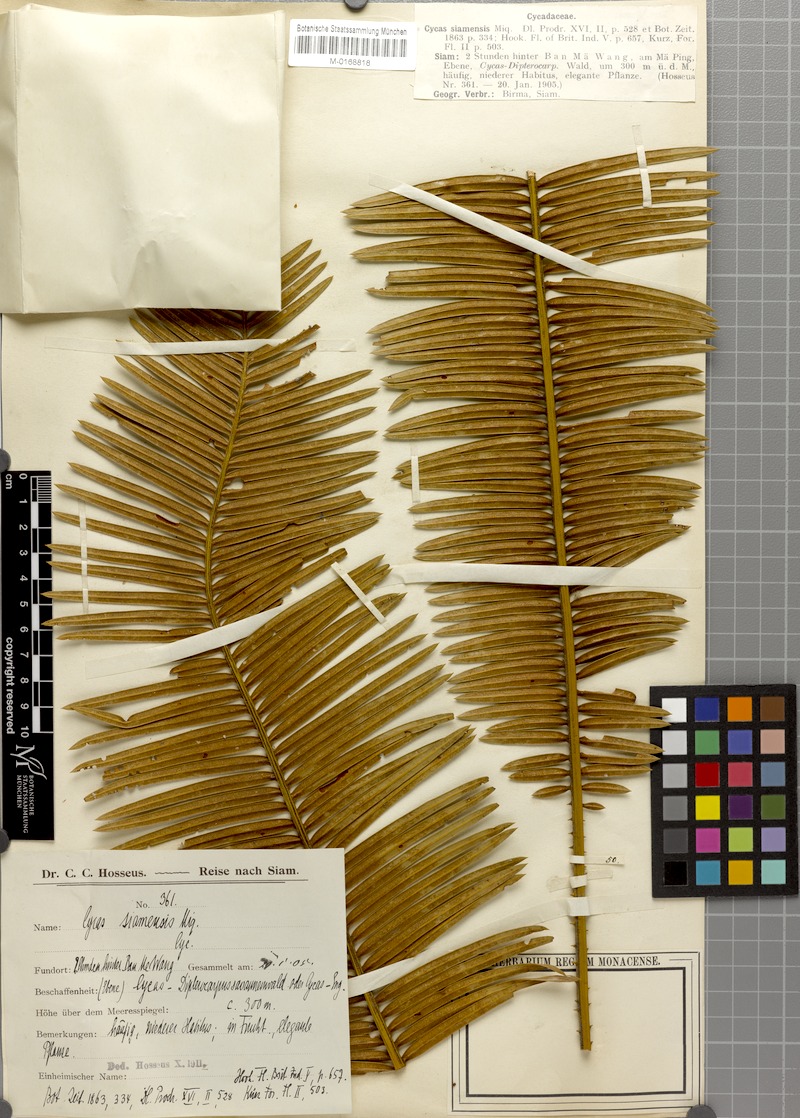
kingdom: Plantae
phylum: Tracheophyta
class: Cycadopsida
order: Cycadales
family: Cycadaceae
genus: Cycas
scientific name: Cycas siamensis
